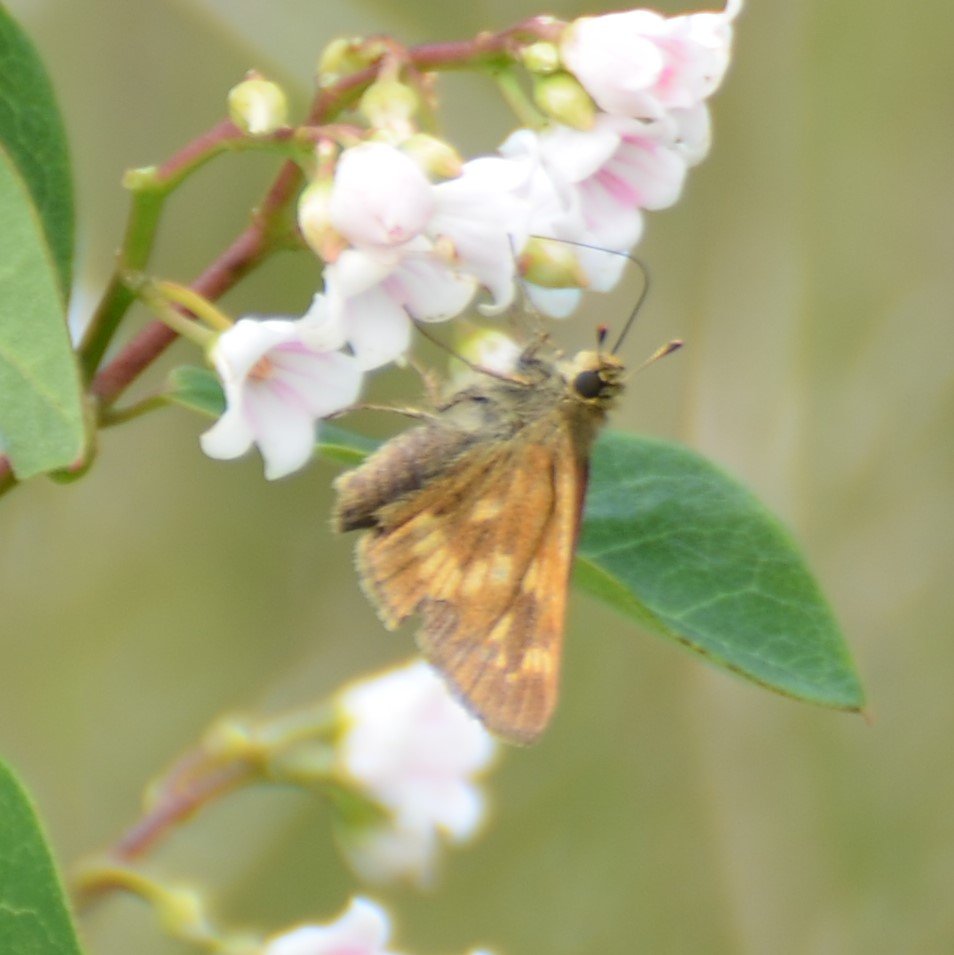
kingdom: Animalia
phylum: Arthropoda
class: Insecta
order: Lepidoptera
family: Hesperiidae
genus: Polites
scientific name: Polites
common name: Long Dash Skipper
